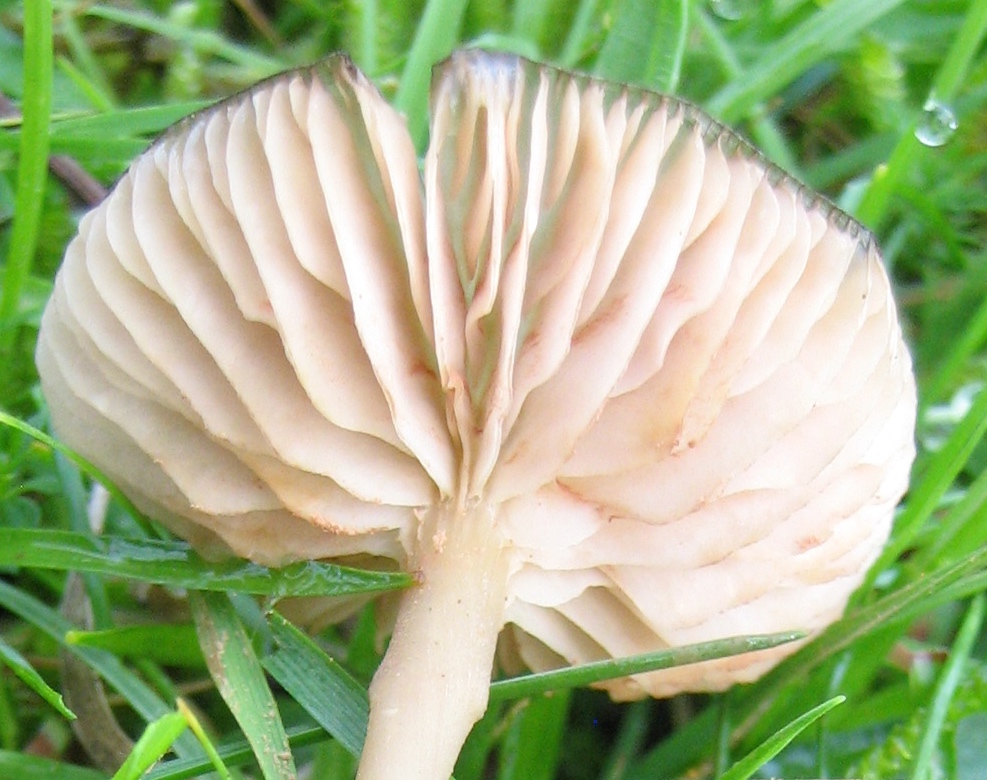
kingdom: Fungi
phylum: Basidiomycota
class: Agaricomycetes
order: Agaricales
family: Entolomataceae
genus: Entoloma
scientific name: Entoloma
